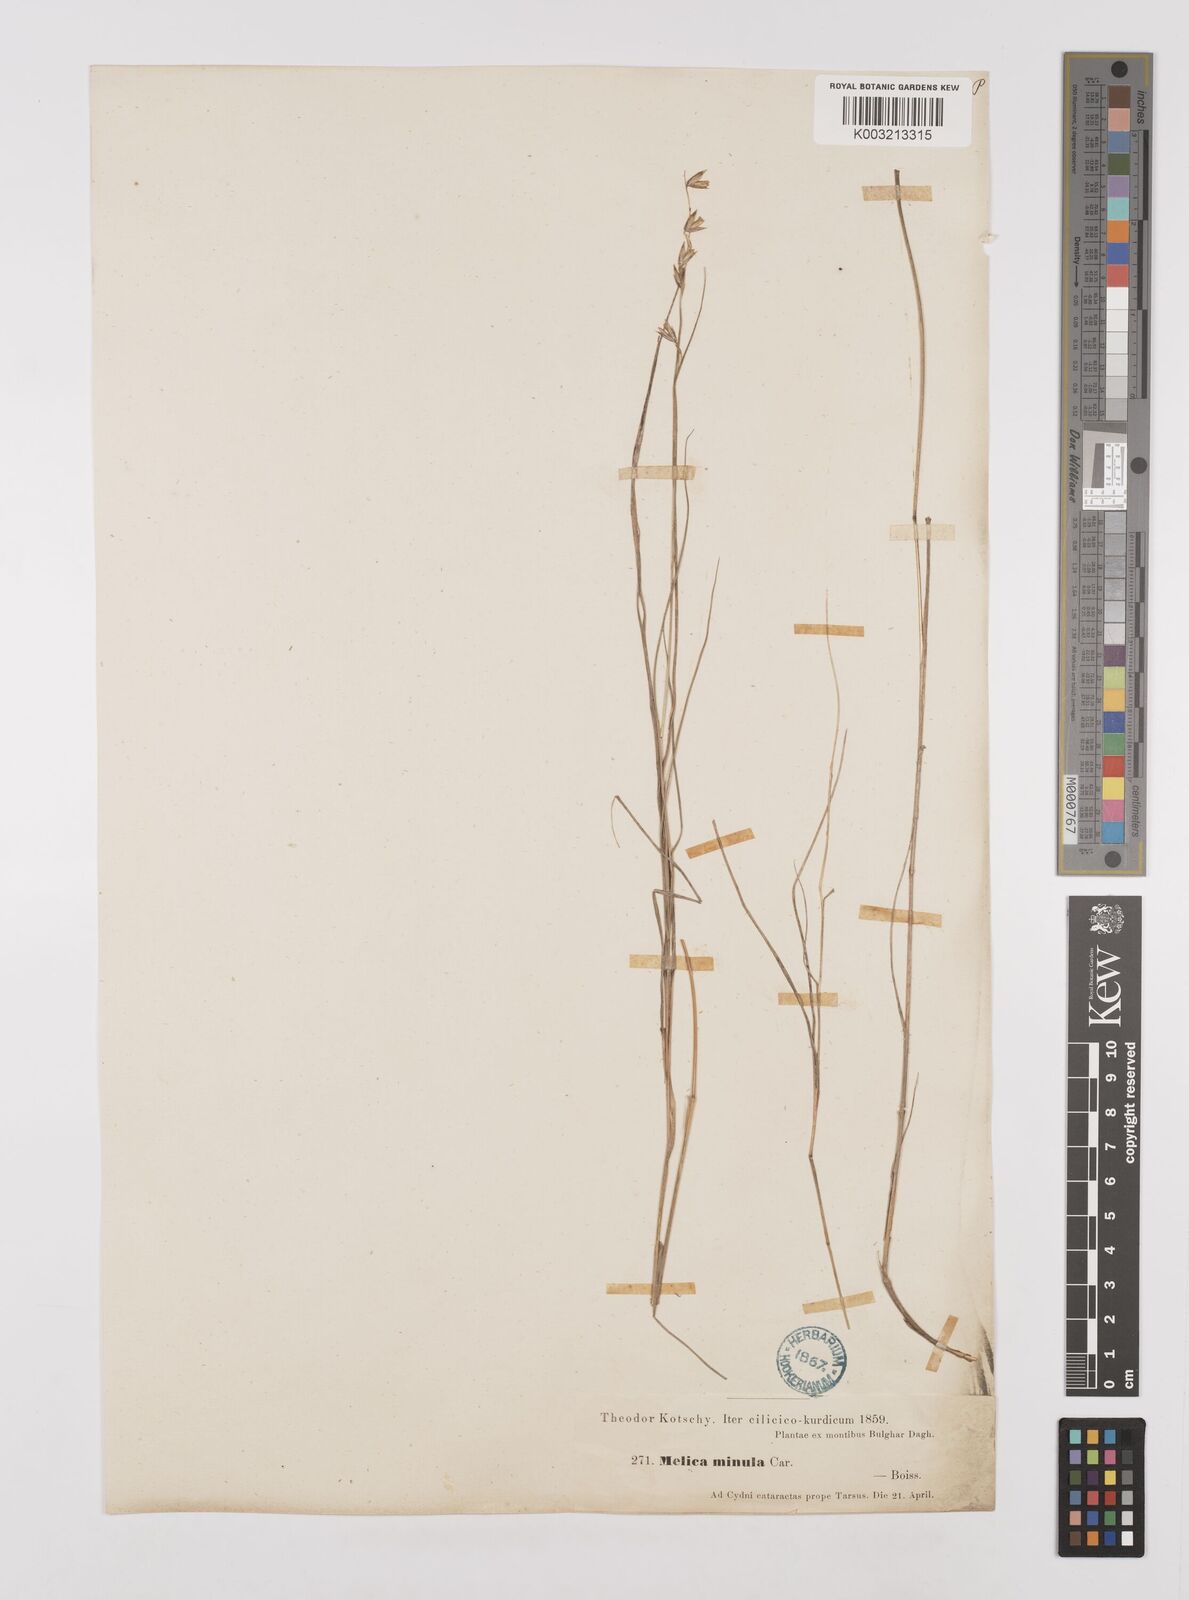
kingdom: Plantae
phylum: Tracheophyta
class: Liliopsida
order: Poales
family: Poaceae
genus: Melica
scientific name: Melica minuta
